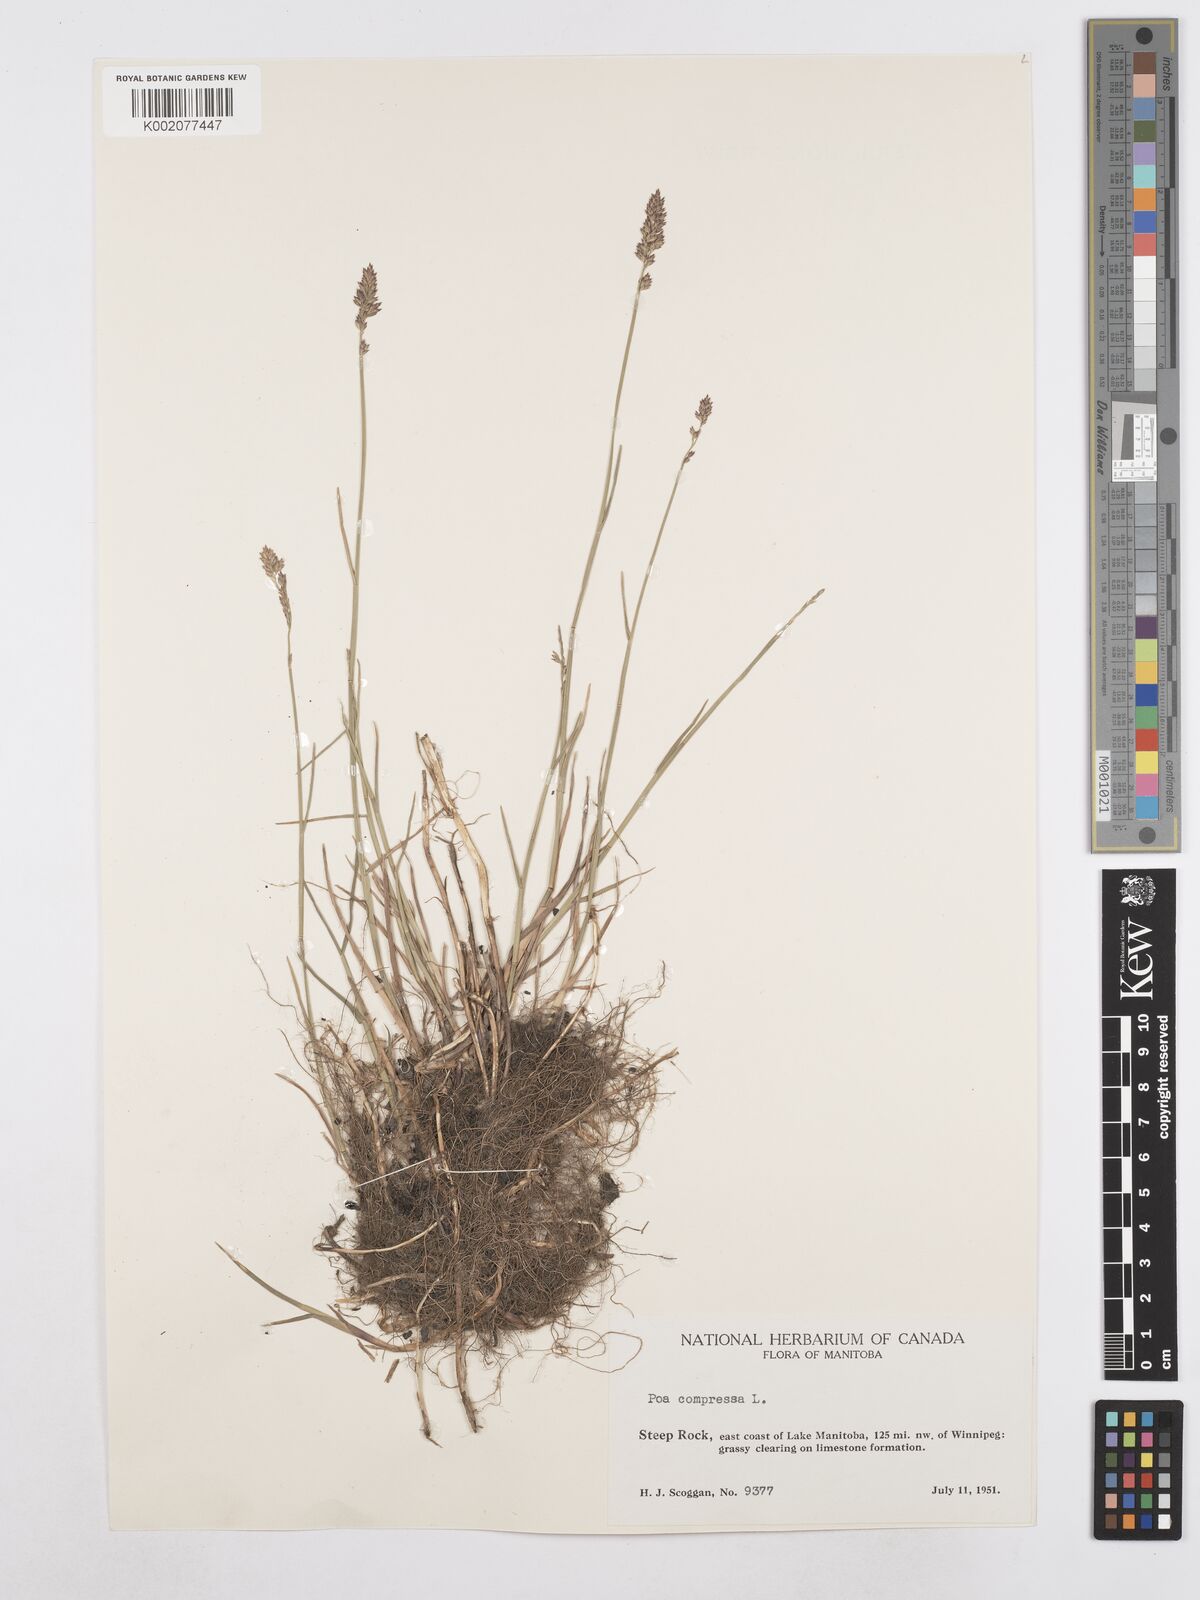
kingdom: Plantae
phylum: Tracheophyta
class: Liliopsida
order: Poales
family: Poaceae
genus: Poa
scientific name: Poa compressa
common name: Canada bluegrass
